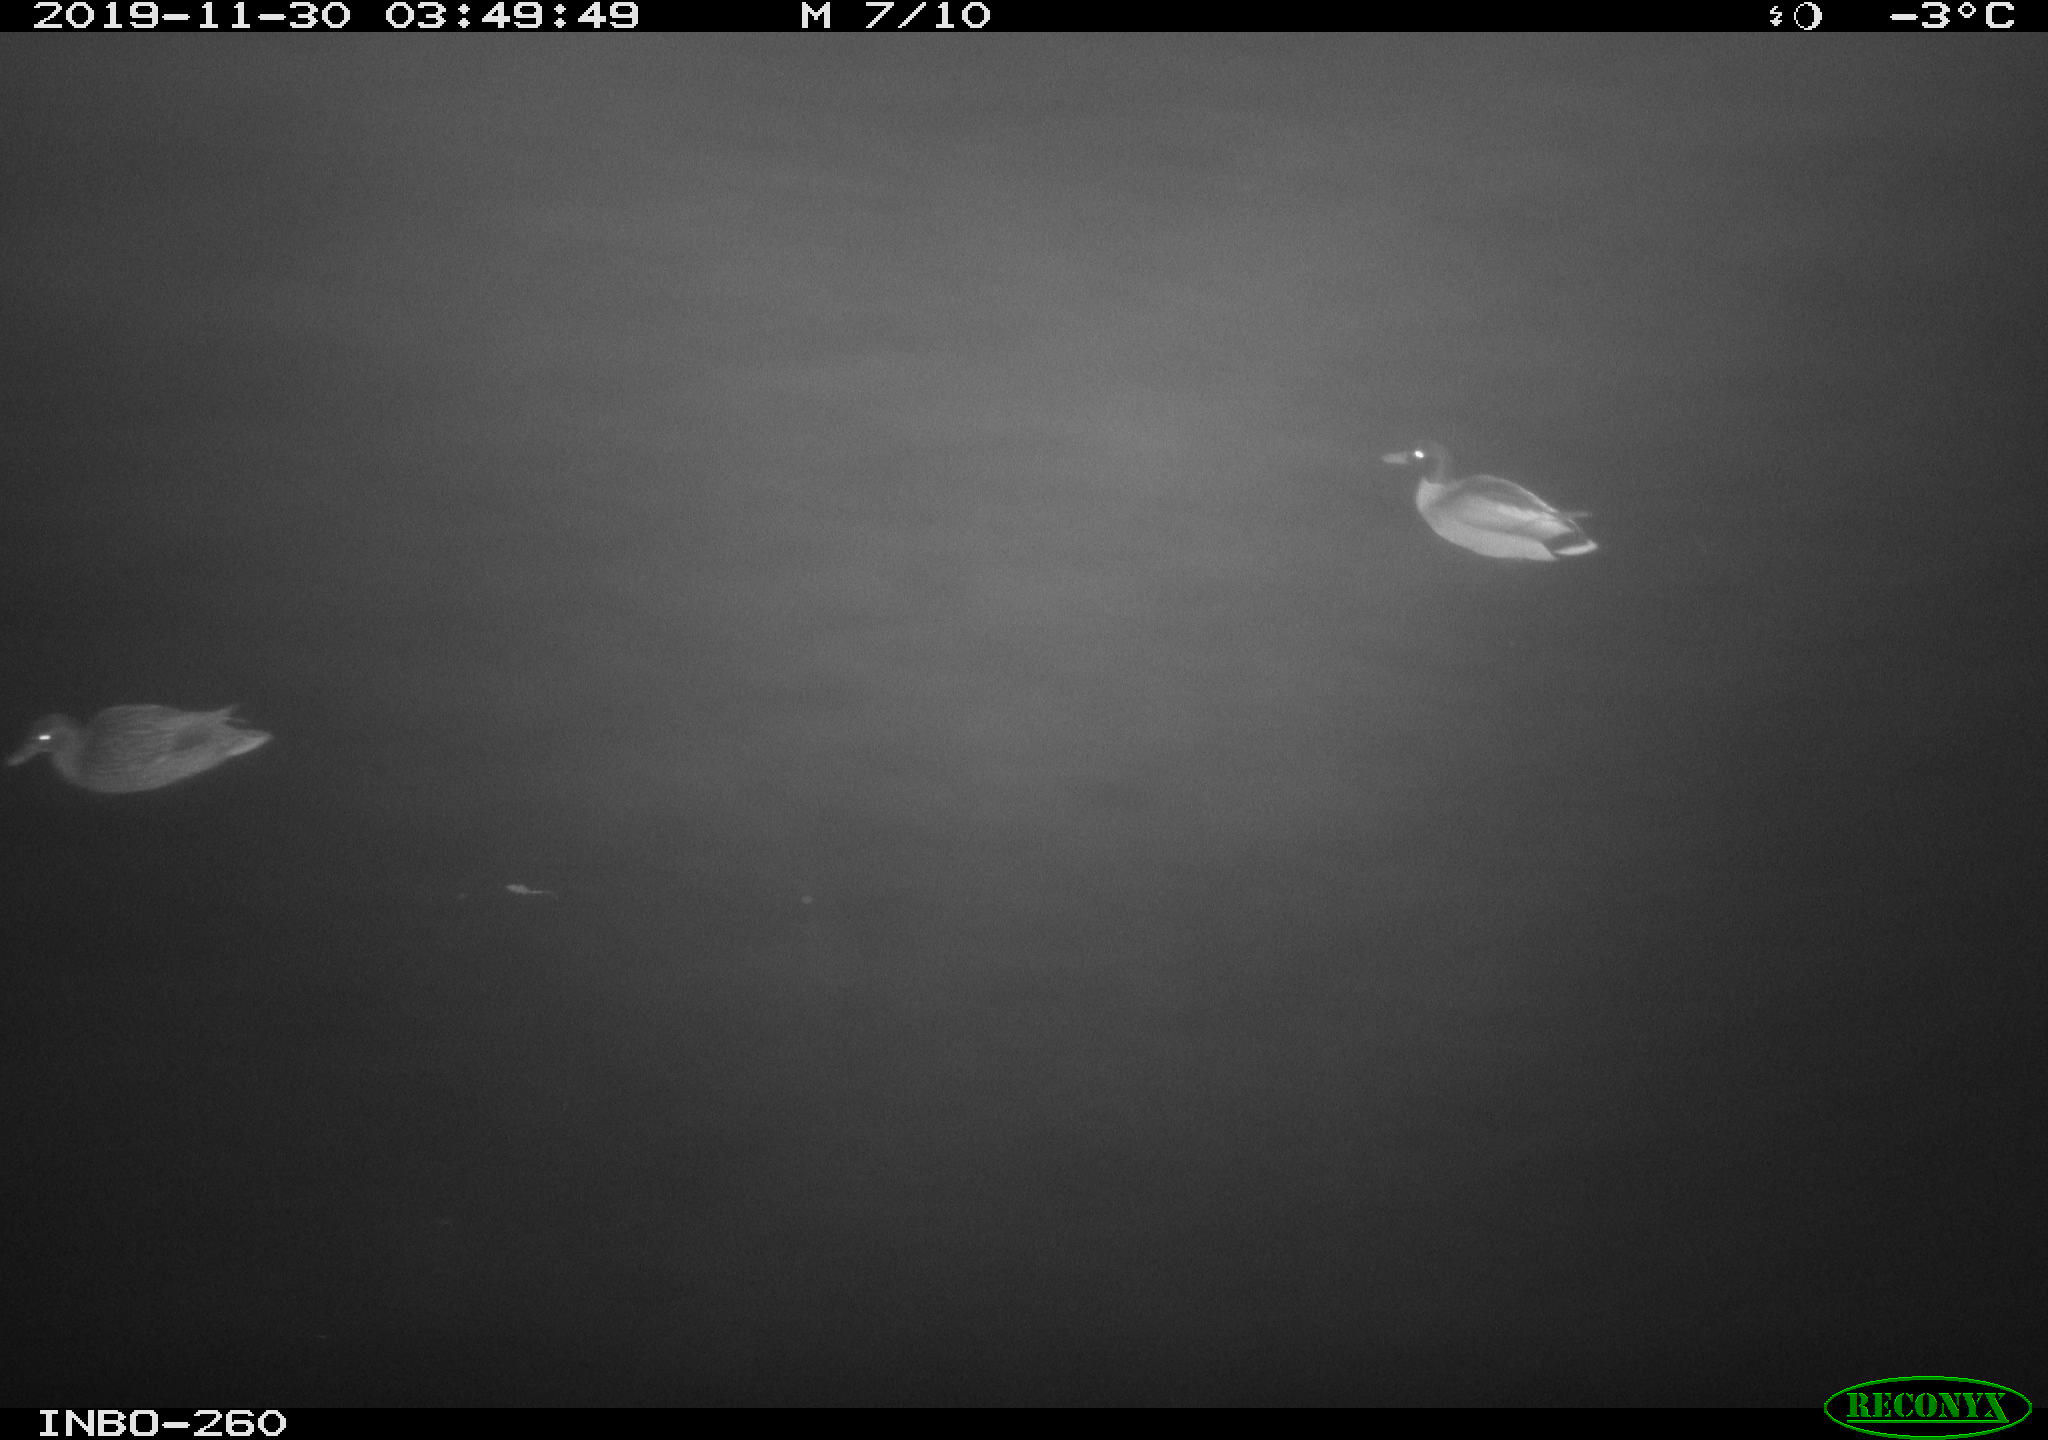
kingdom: Animalia
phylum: Chordata
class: Aves
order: Anseriformes
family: Anatidae
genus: Anas
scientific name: Anas platyrhynchos
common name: Mallard
